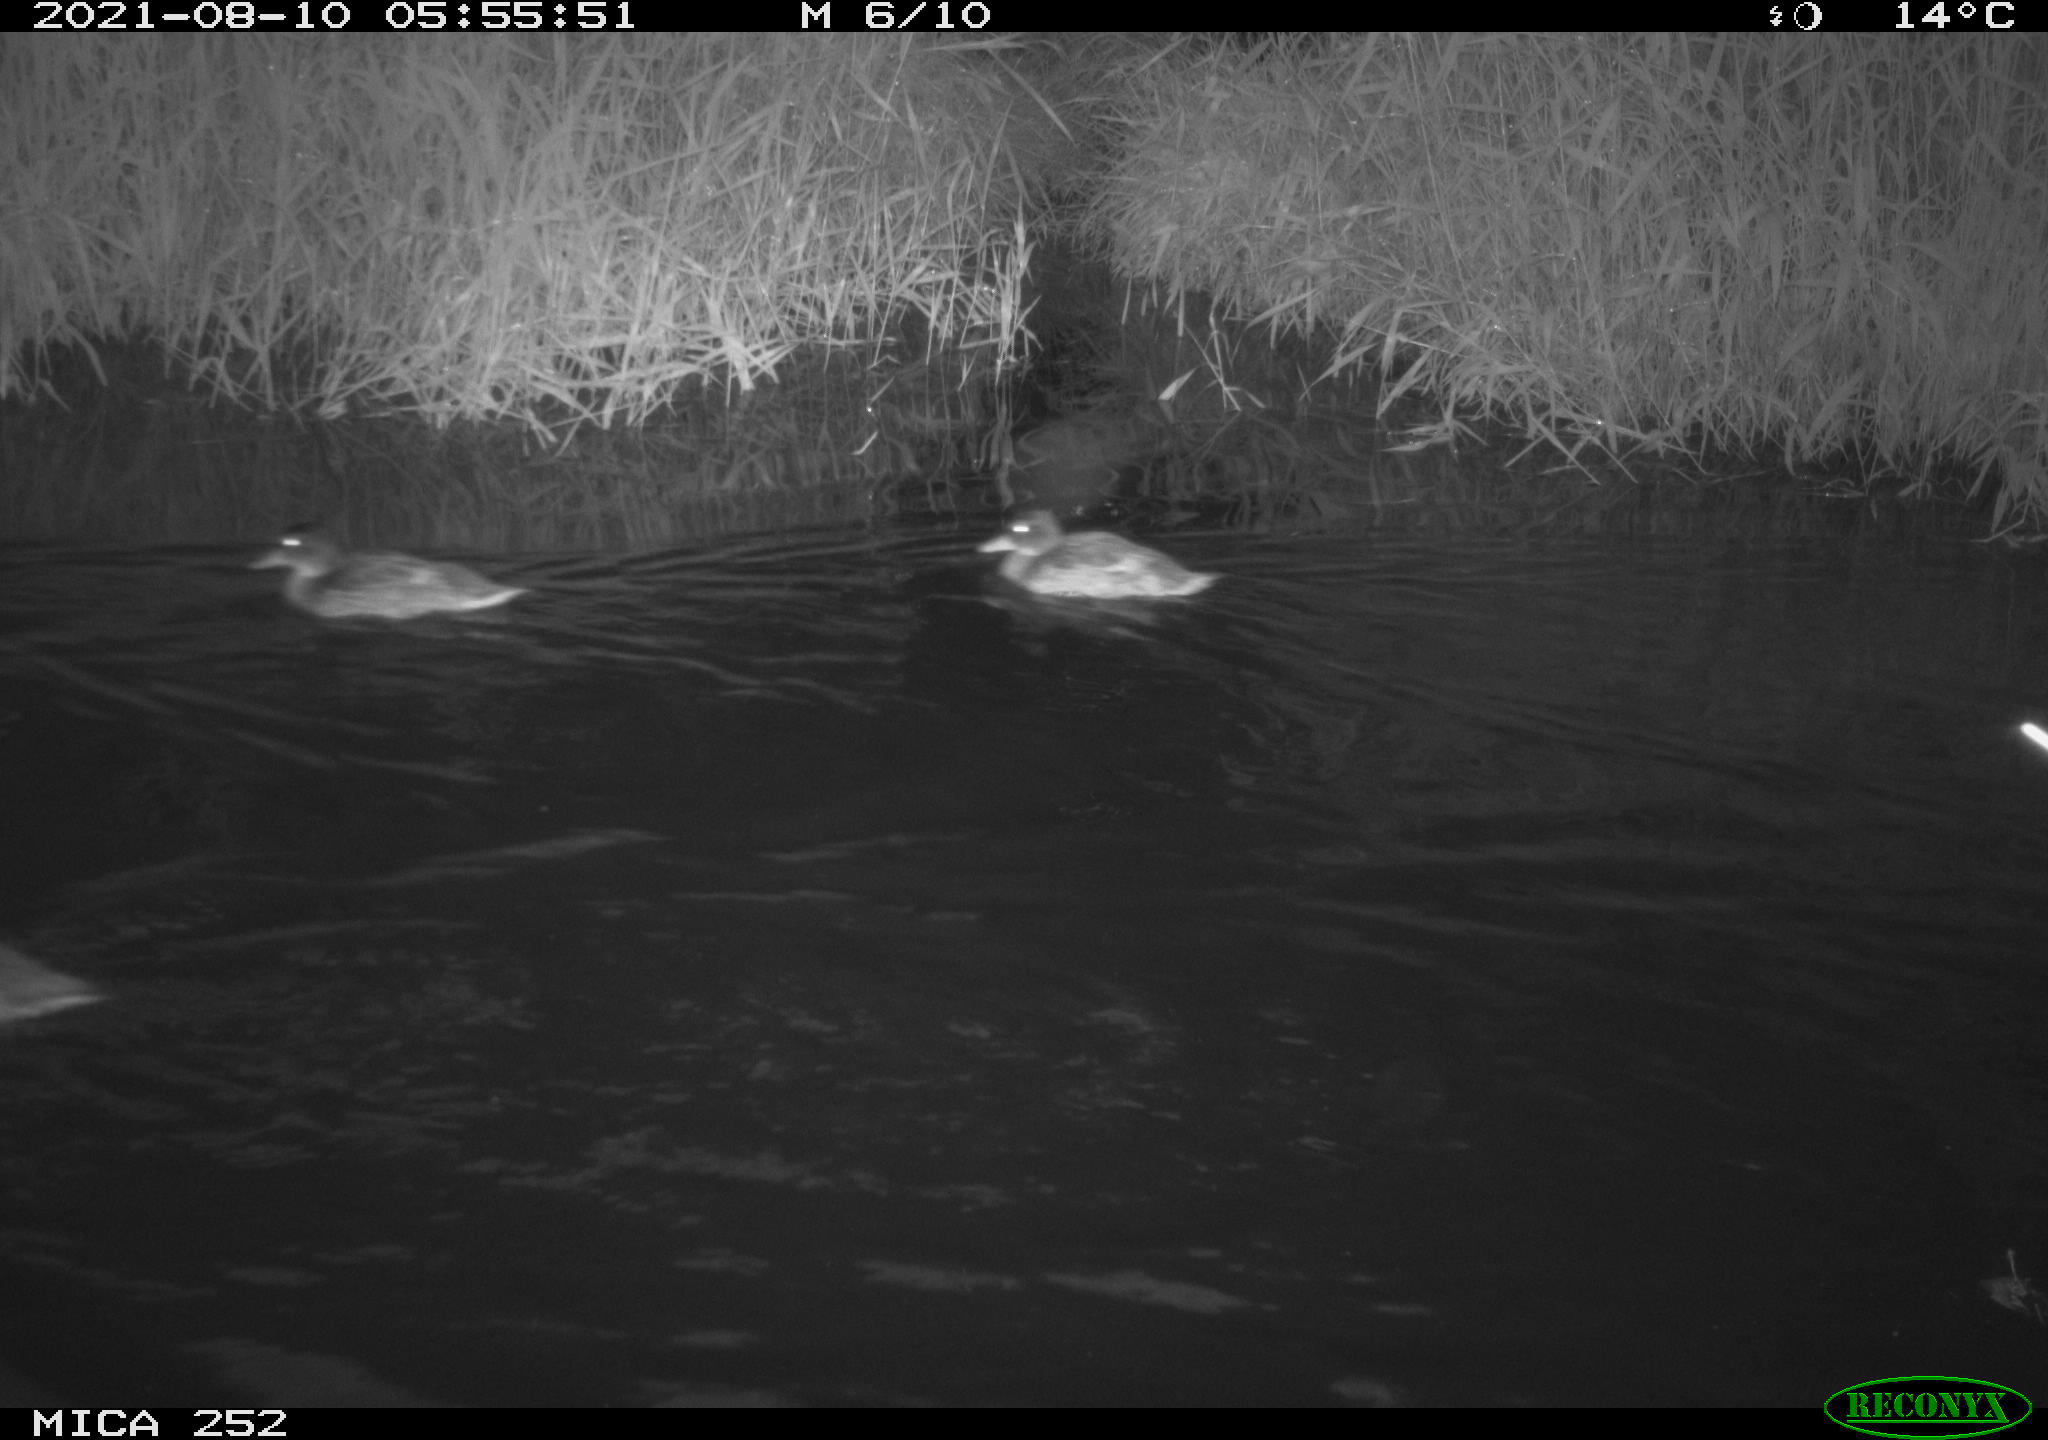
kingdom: Animalia
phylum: Chordata
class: Aves
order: Anseriformes
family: Anatidae
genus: Anas
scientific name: Anas
